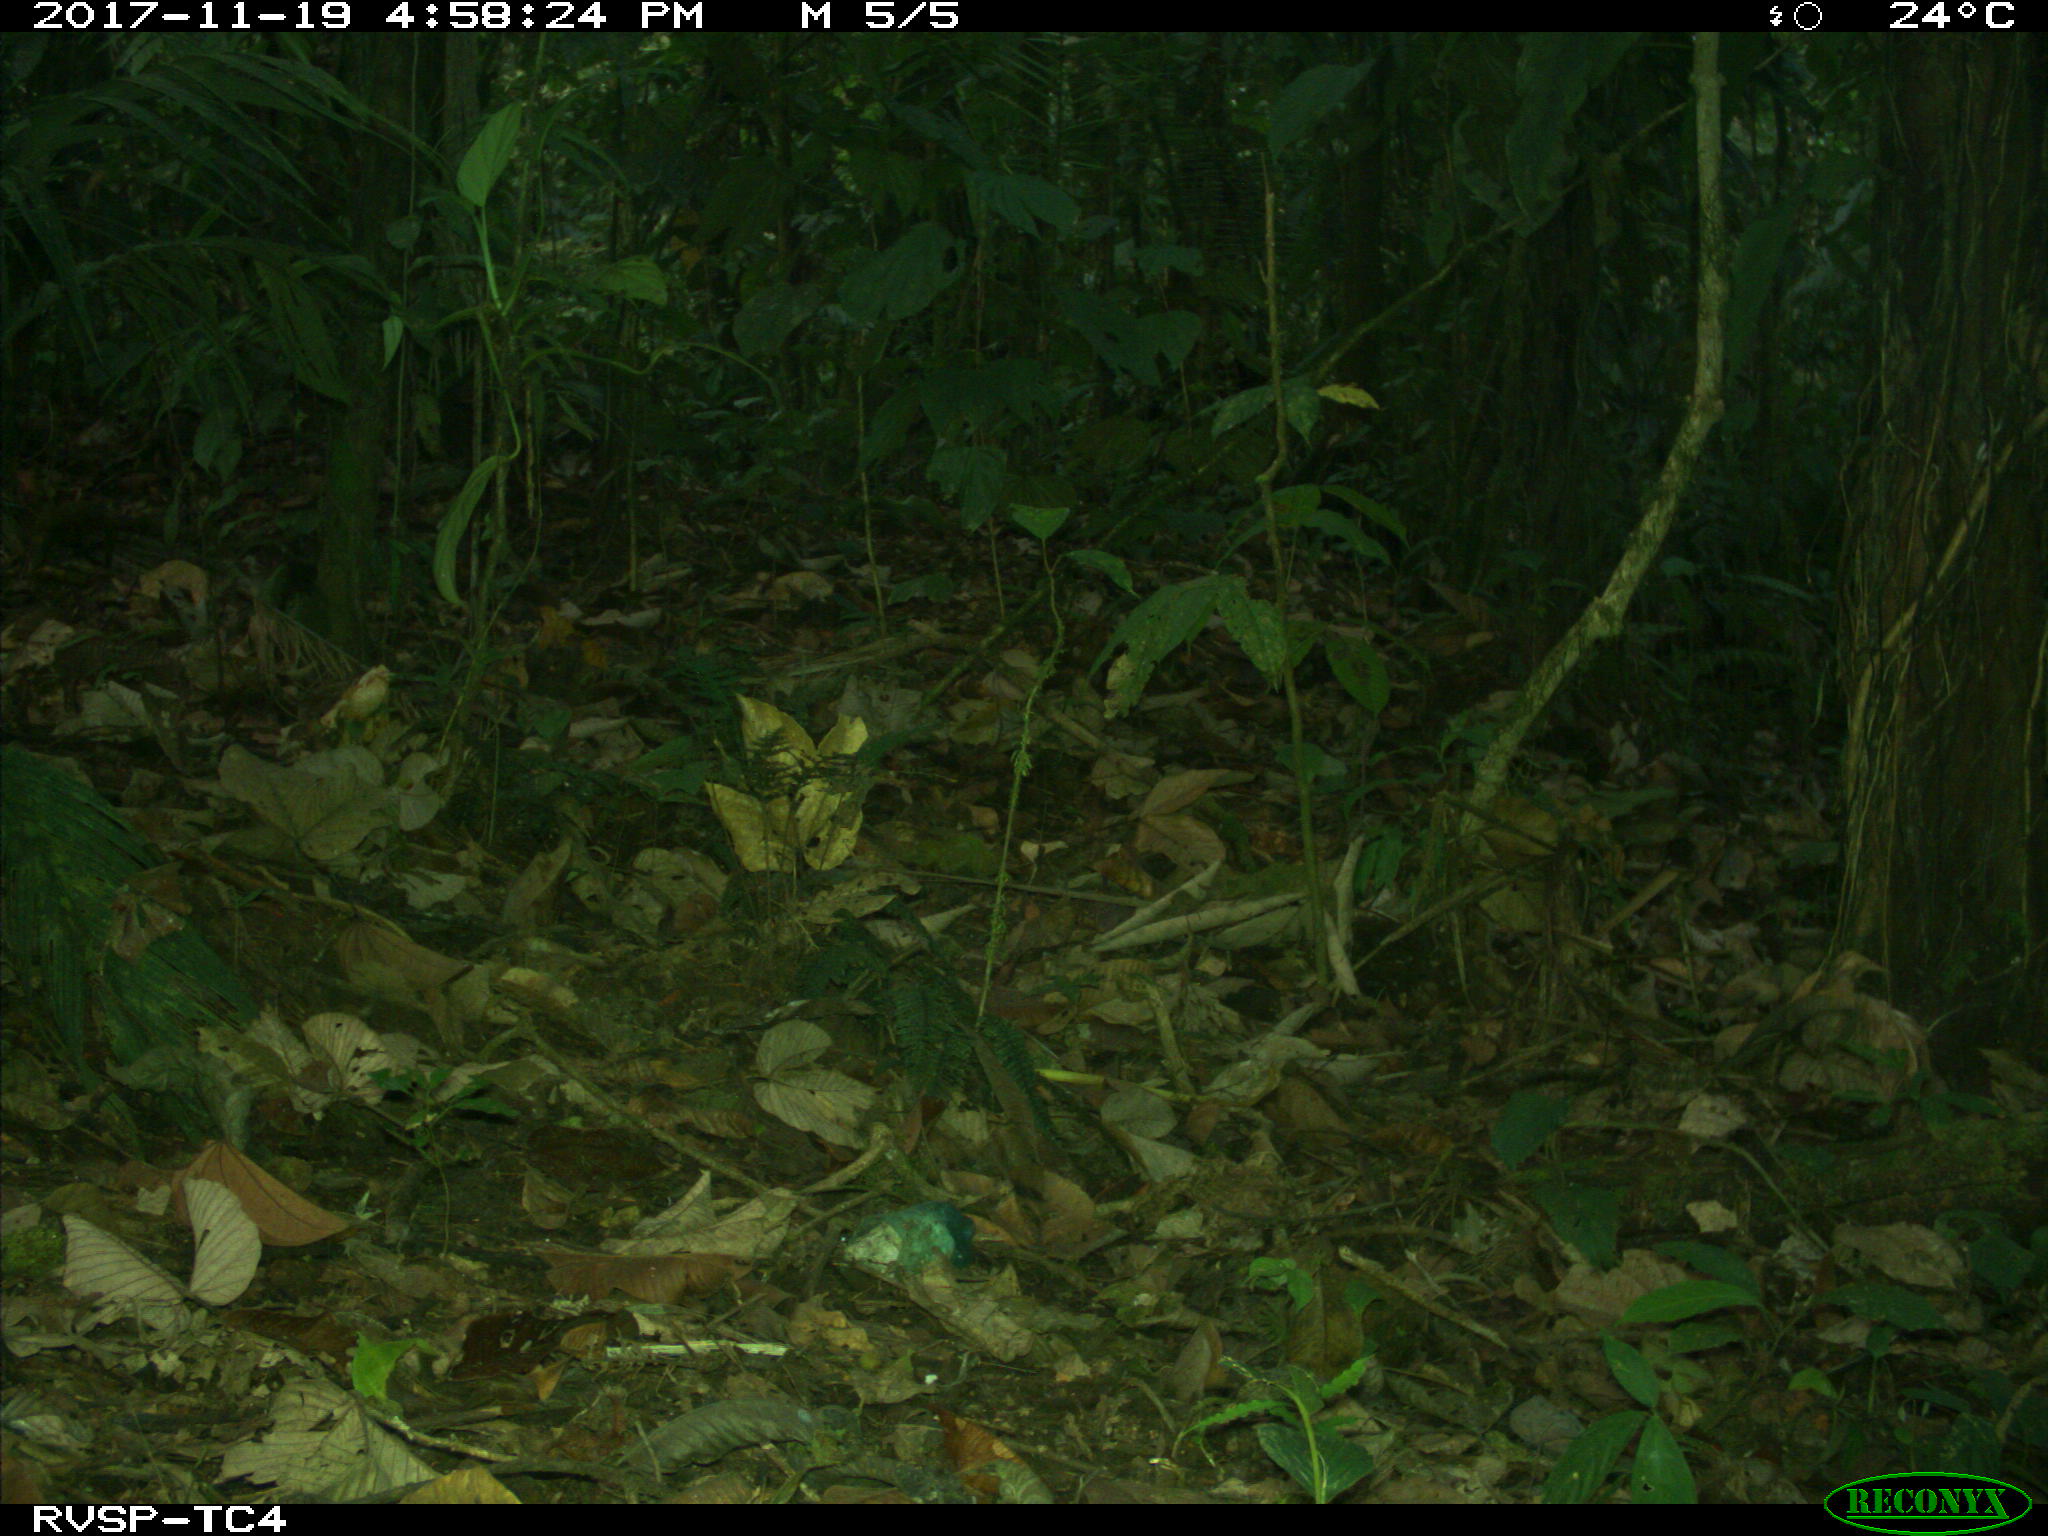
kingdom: Animalia
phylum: Chordata
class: Mammalia
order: Rodentia
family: Dasyproctidae
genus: Dasyprocta
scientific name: Dasyprocta punctata
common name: Central american agouti
